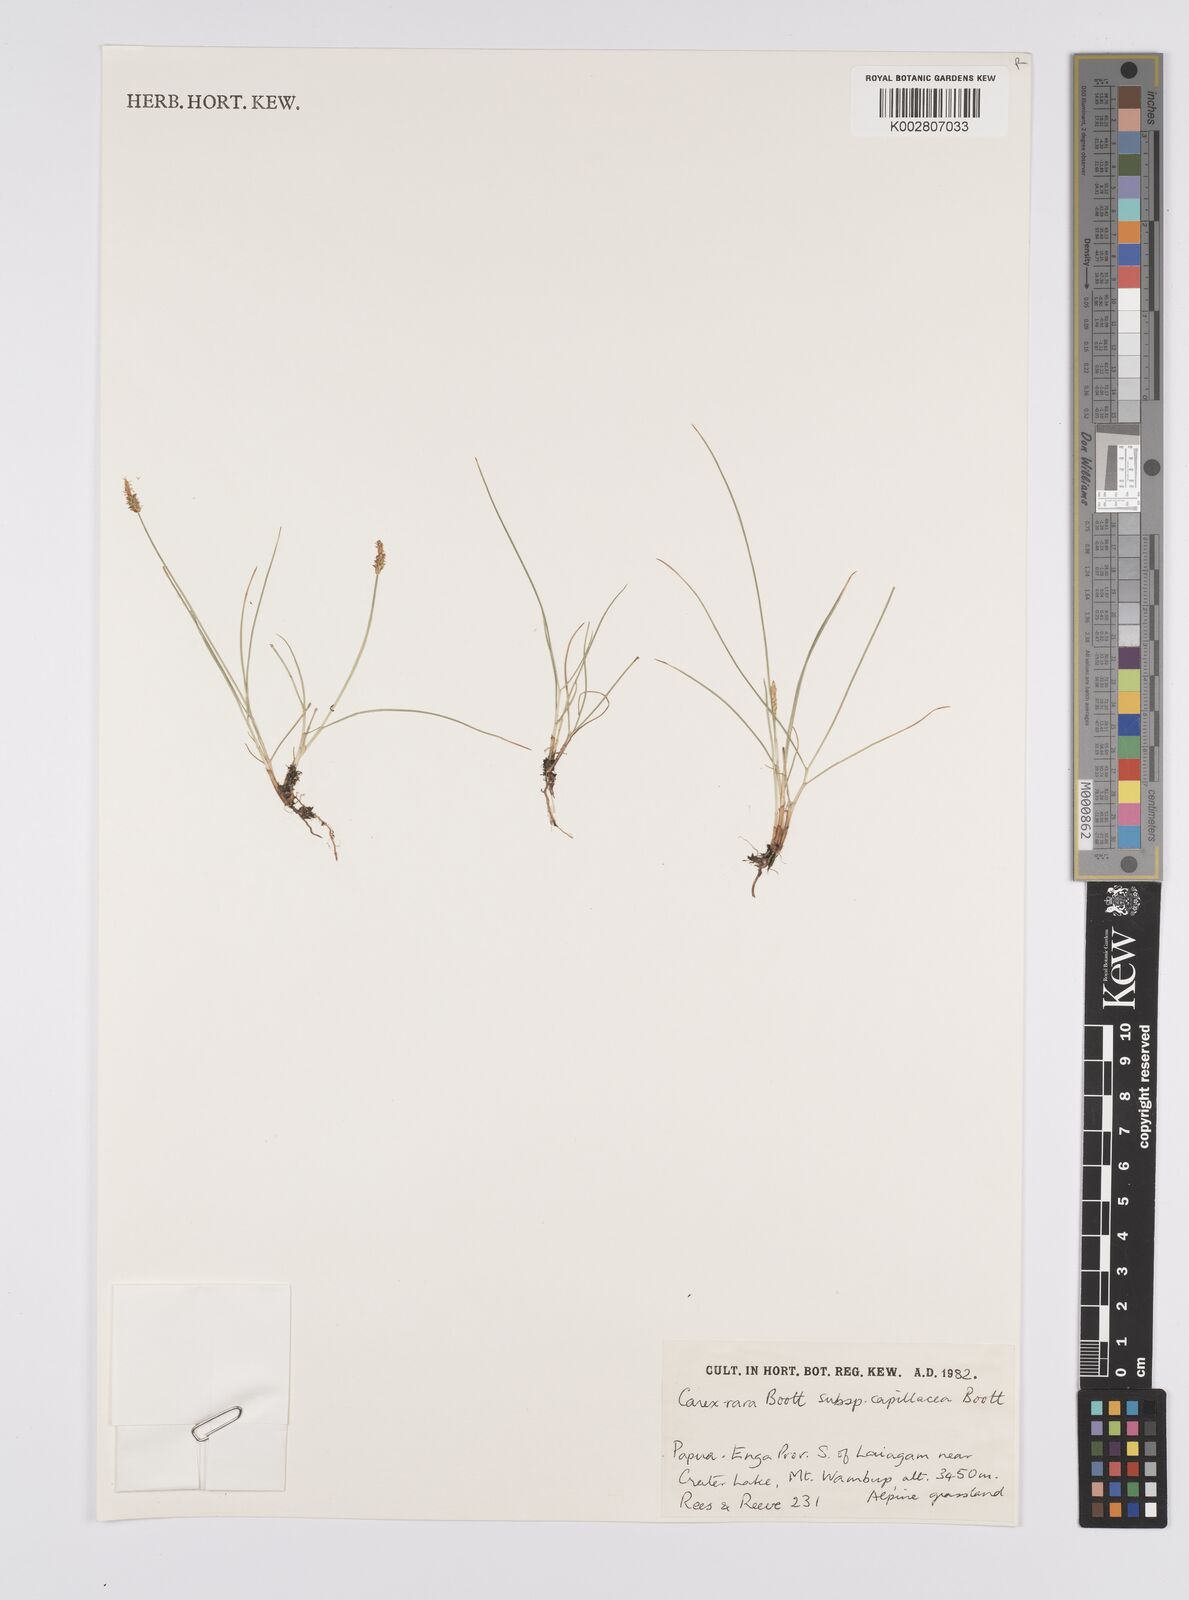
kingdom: Plantae
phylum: Tracheophyta
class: Liliopsida
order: Poales
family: Cyperaceae
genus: Carex
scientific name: Carex capillacea
